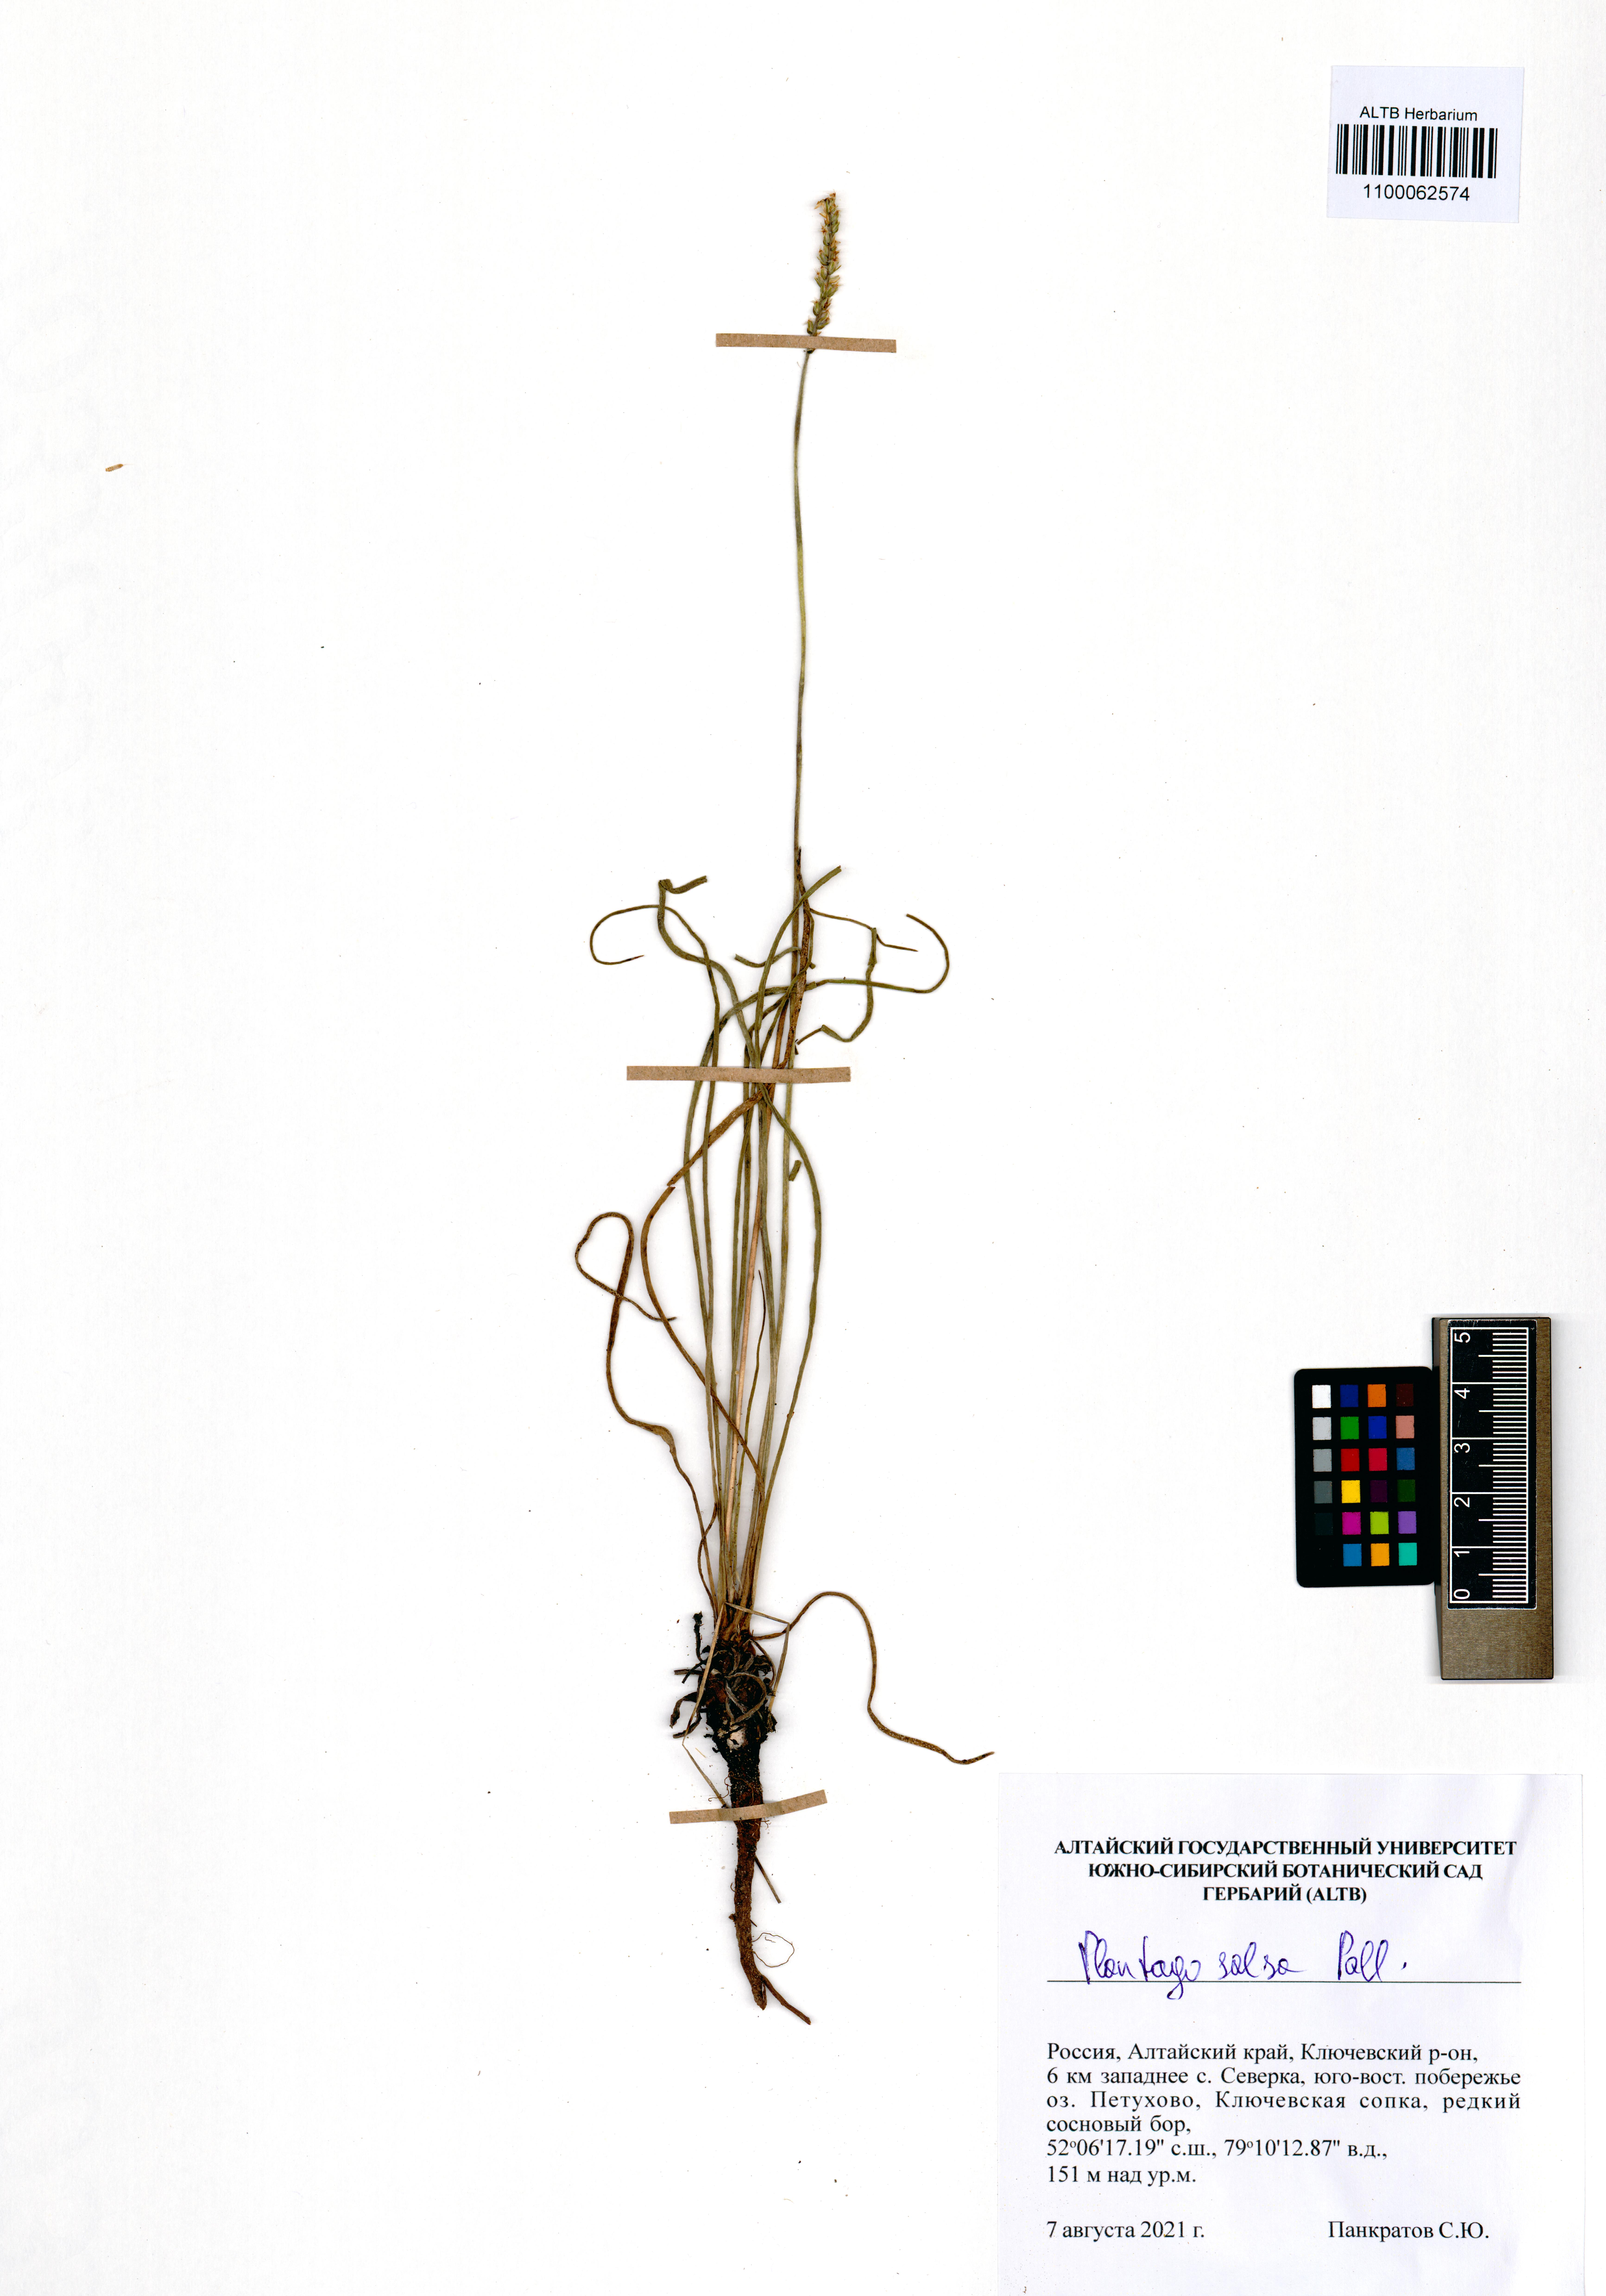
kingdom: Plantae
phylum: Tracheophyta
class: Magnoliopsida
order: Lamiales
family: Plantaginaceae
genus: Plantago
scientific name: Plantago salsa
